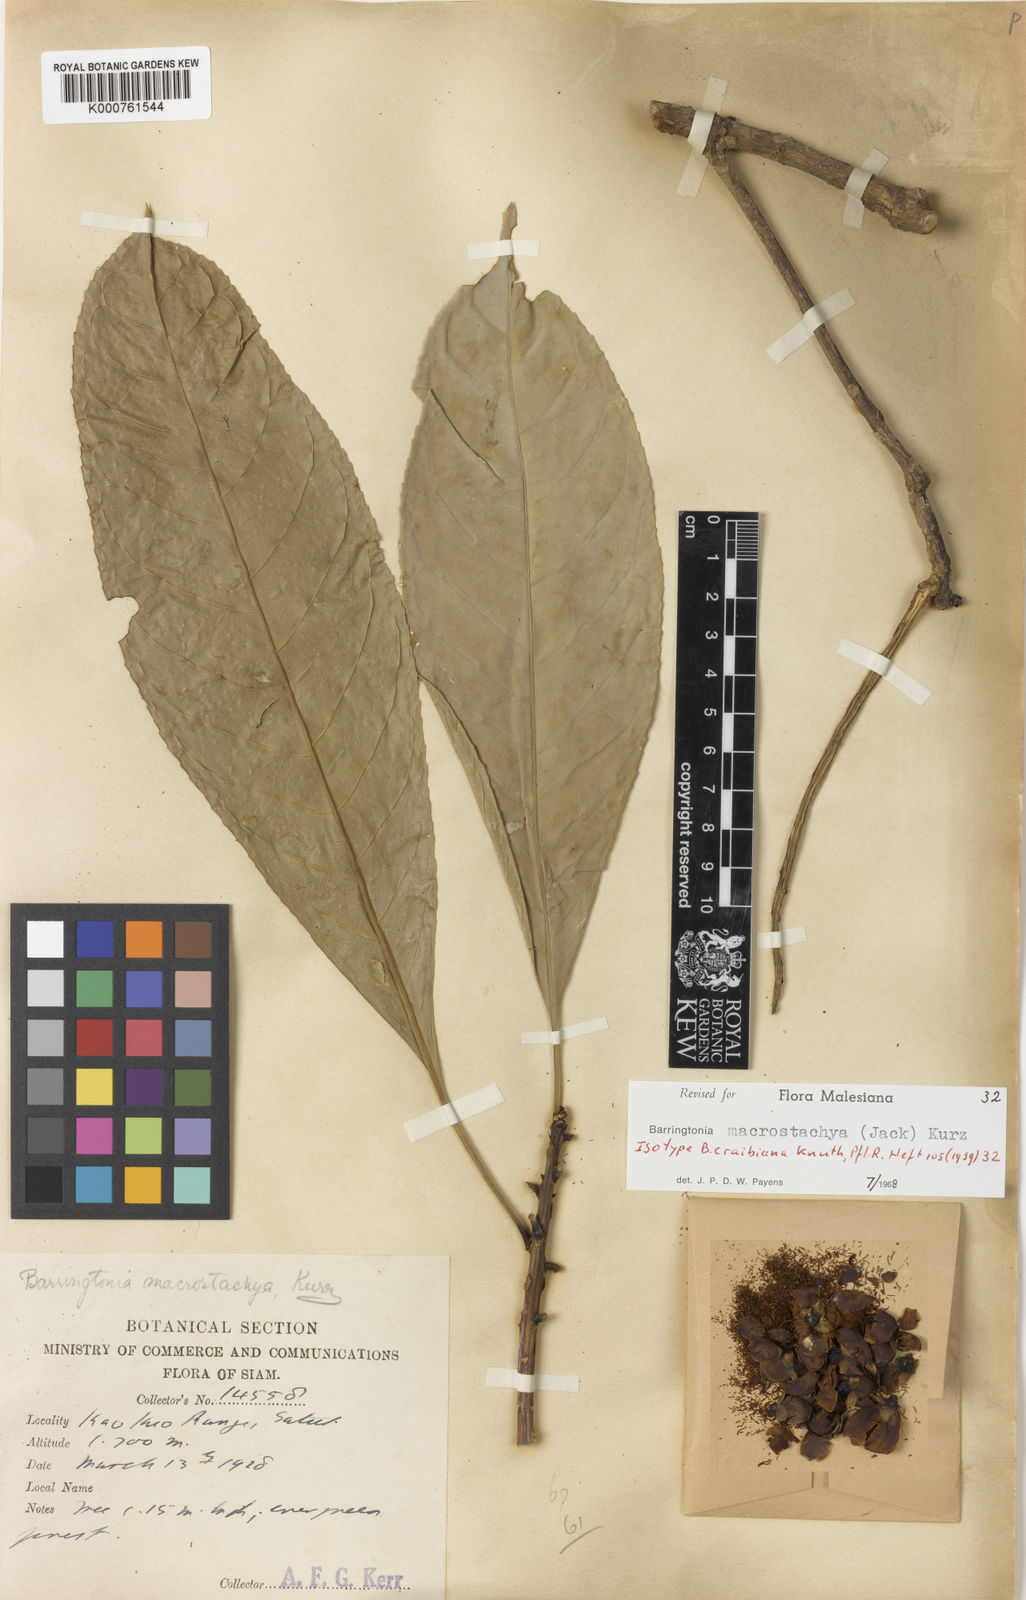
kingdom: Plantae
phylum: Tracheophyta
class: Magnoliopsida
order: Ericales
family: Lecythidaceae
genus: Barringtonia
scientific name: Barringtonia macrostachya
